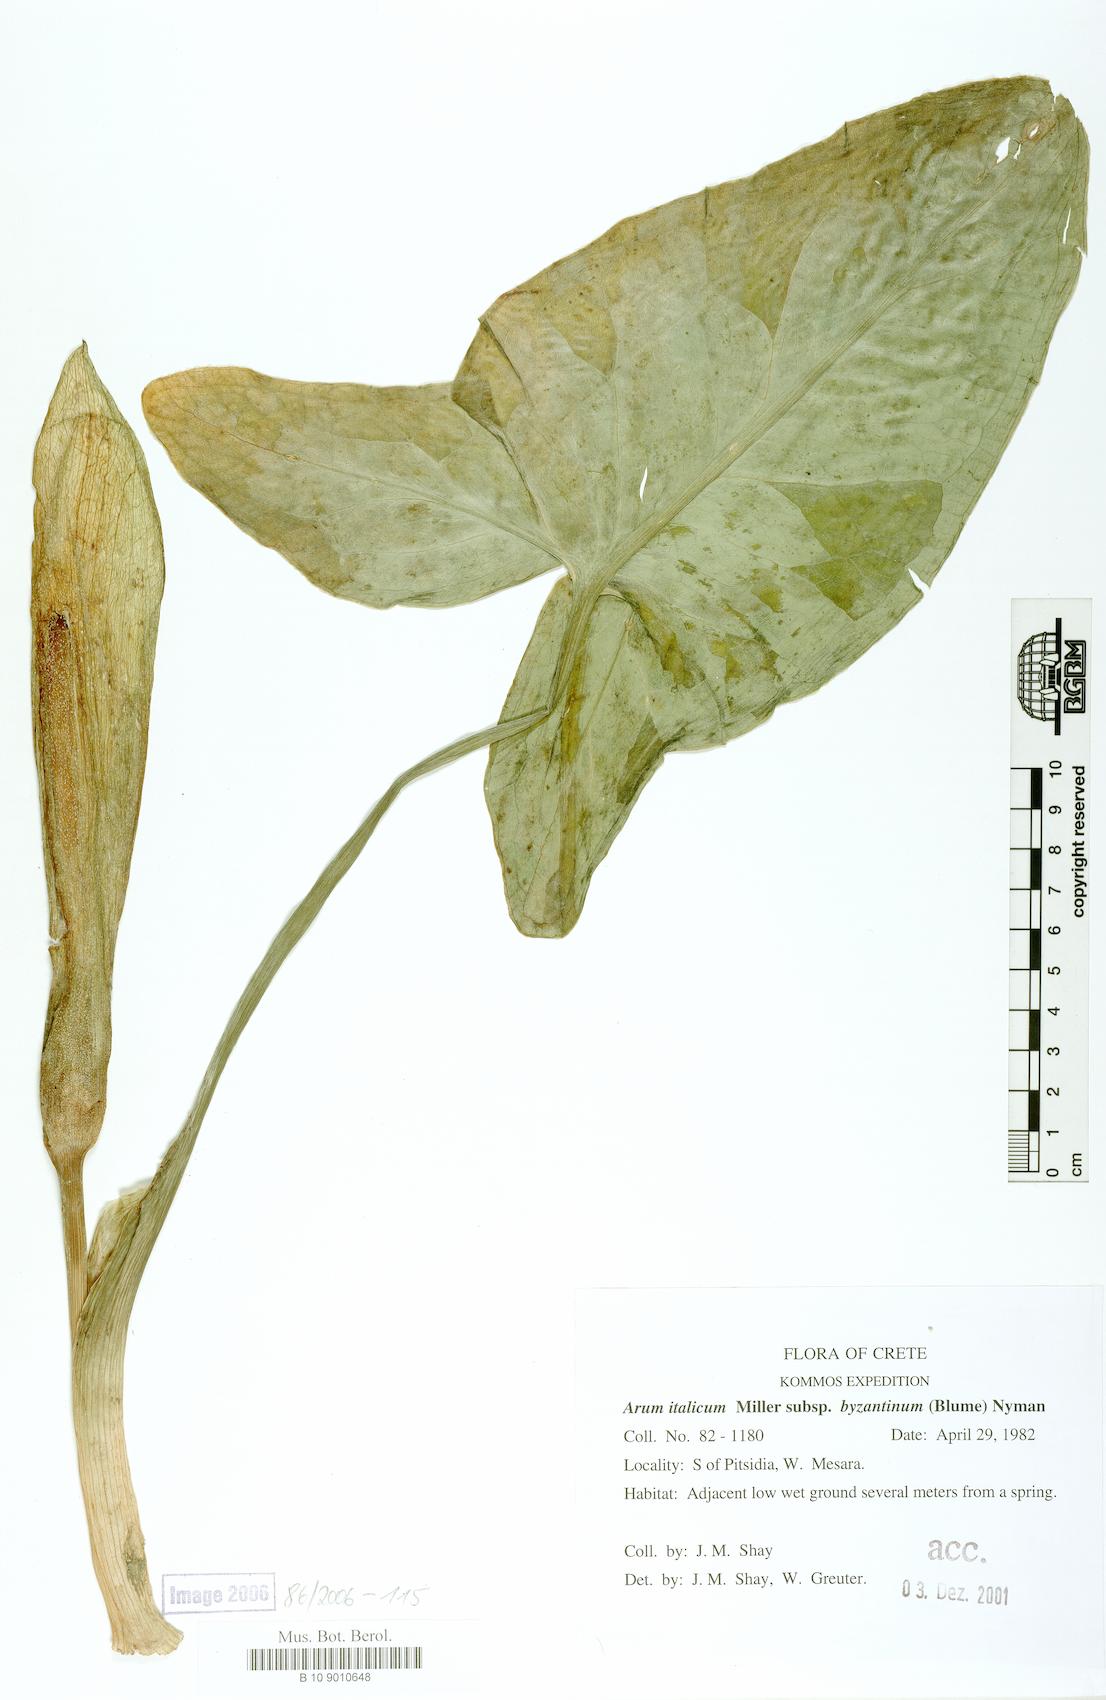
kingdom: Plantae
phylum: Tracheophyta
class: Liliopsida
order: Alismatales
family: Araceae
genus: Arum
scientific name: Arum maculatum
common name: Lords-and-ladies
